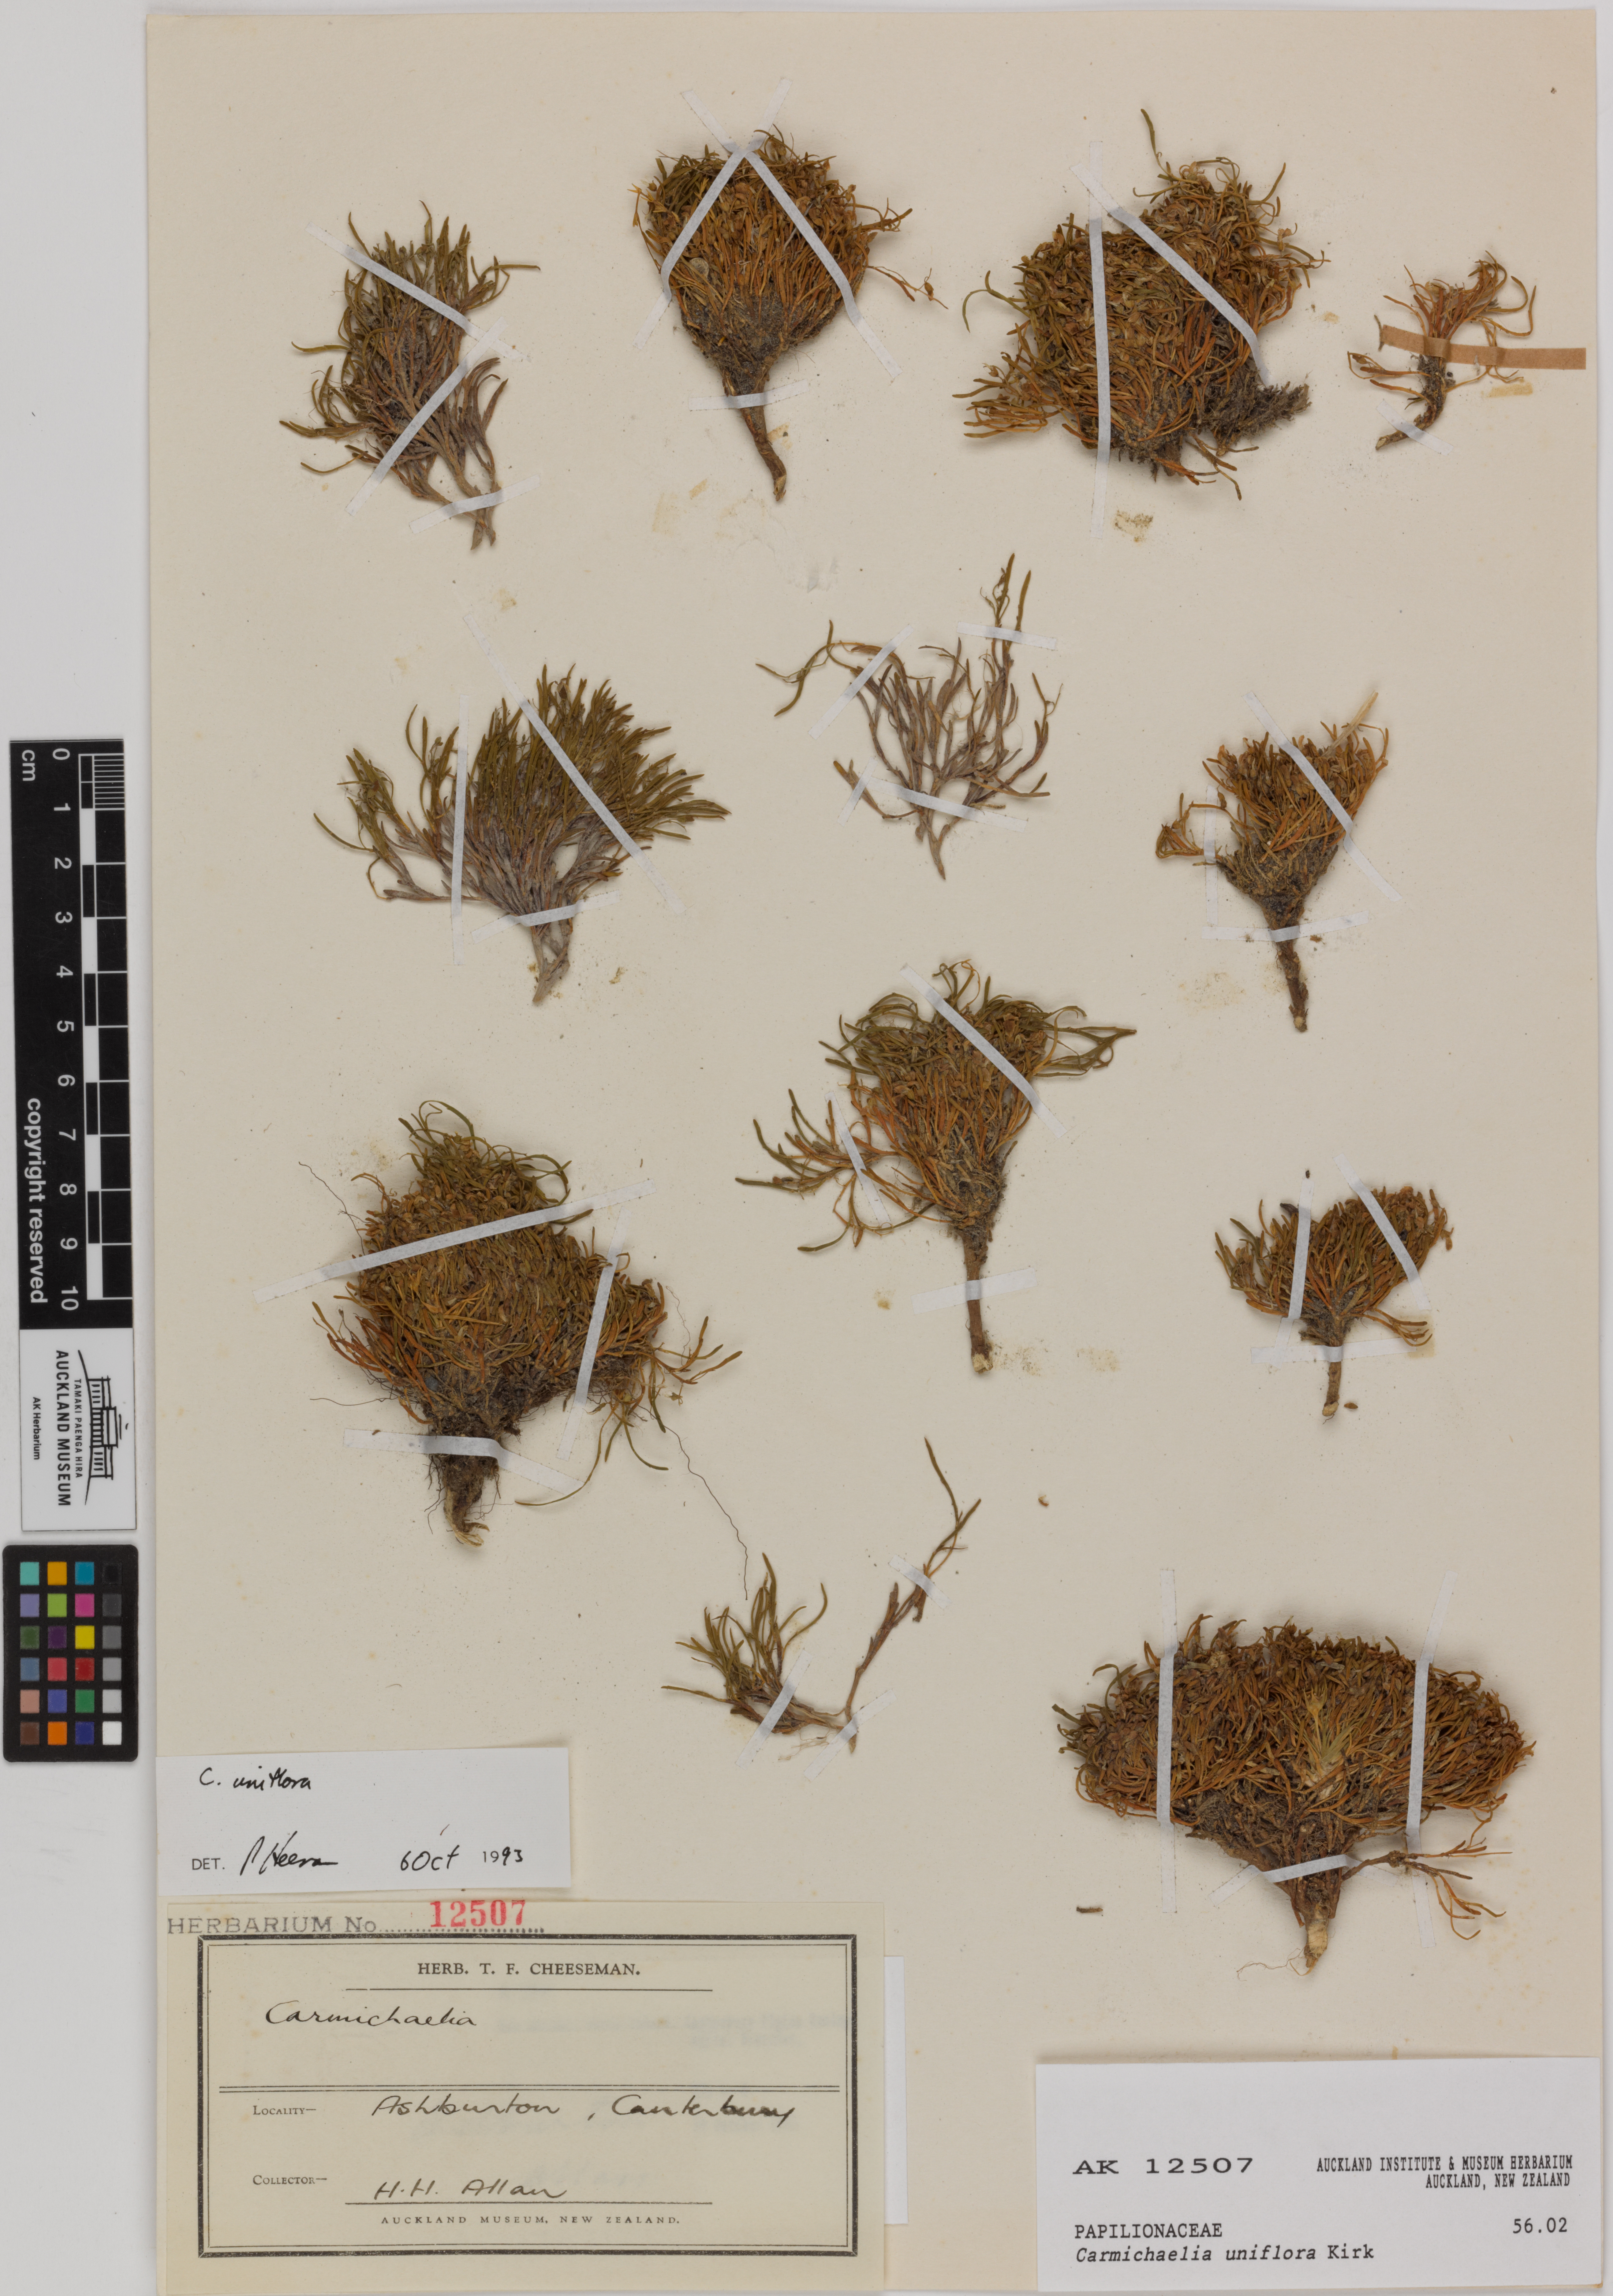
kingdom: Plantae
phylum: Tracheophyta
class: Magnoliopsida
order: Fabales
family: Fabaceae
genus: Carmichaelia
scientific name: Carmichaelia uniflora
